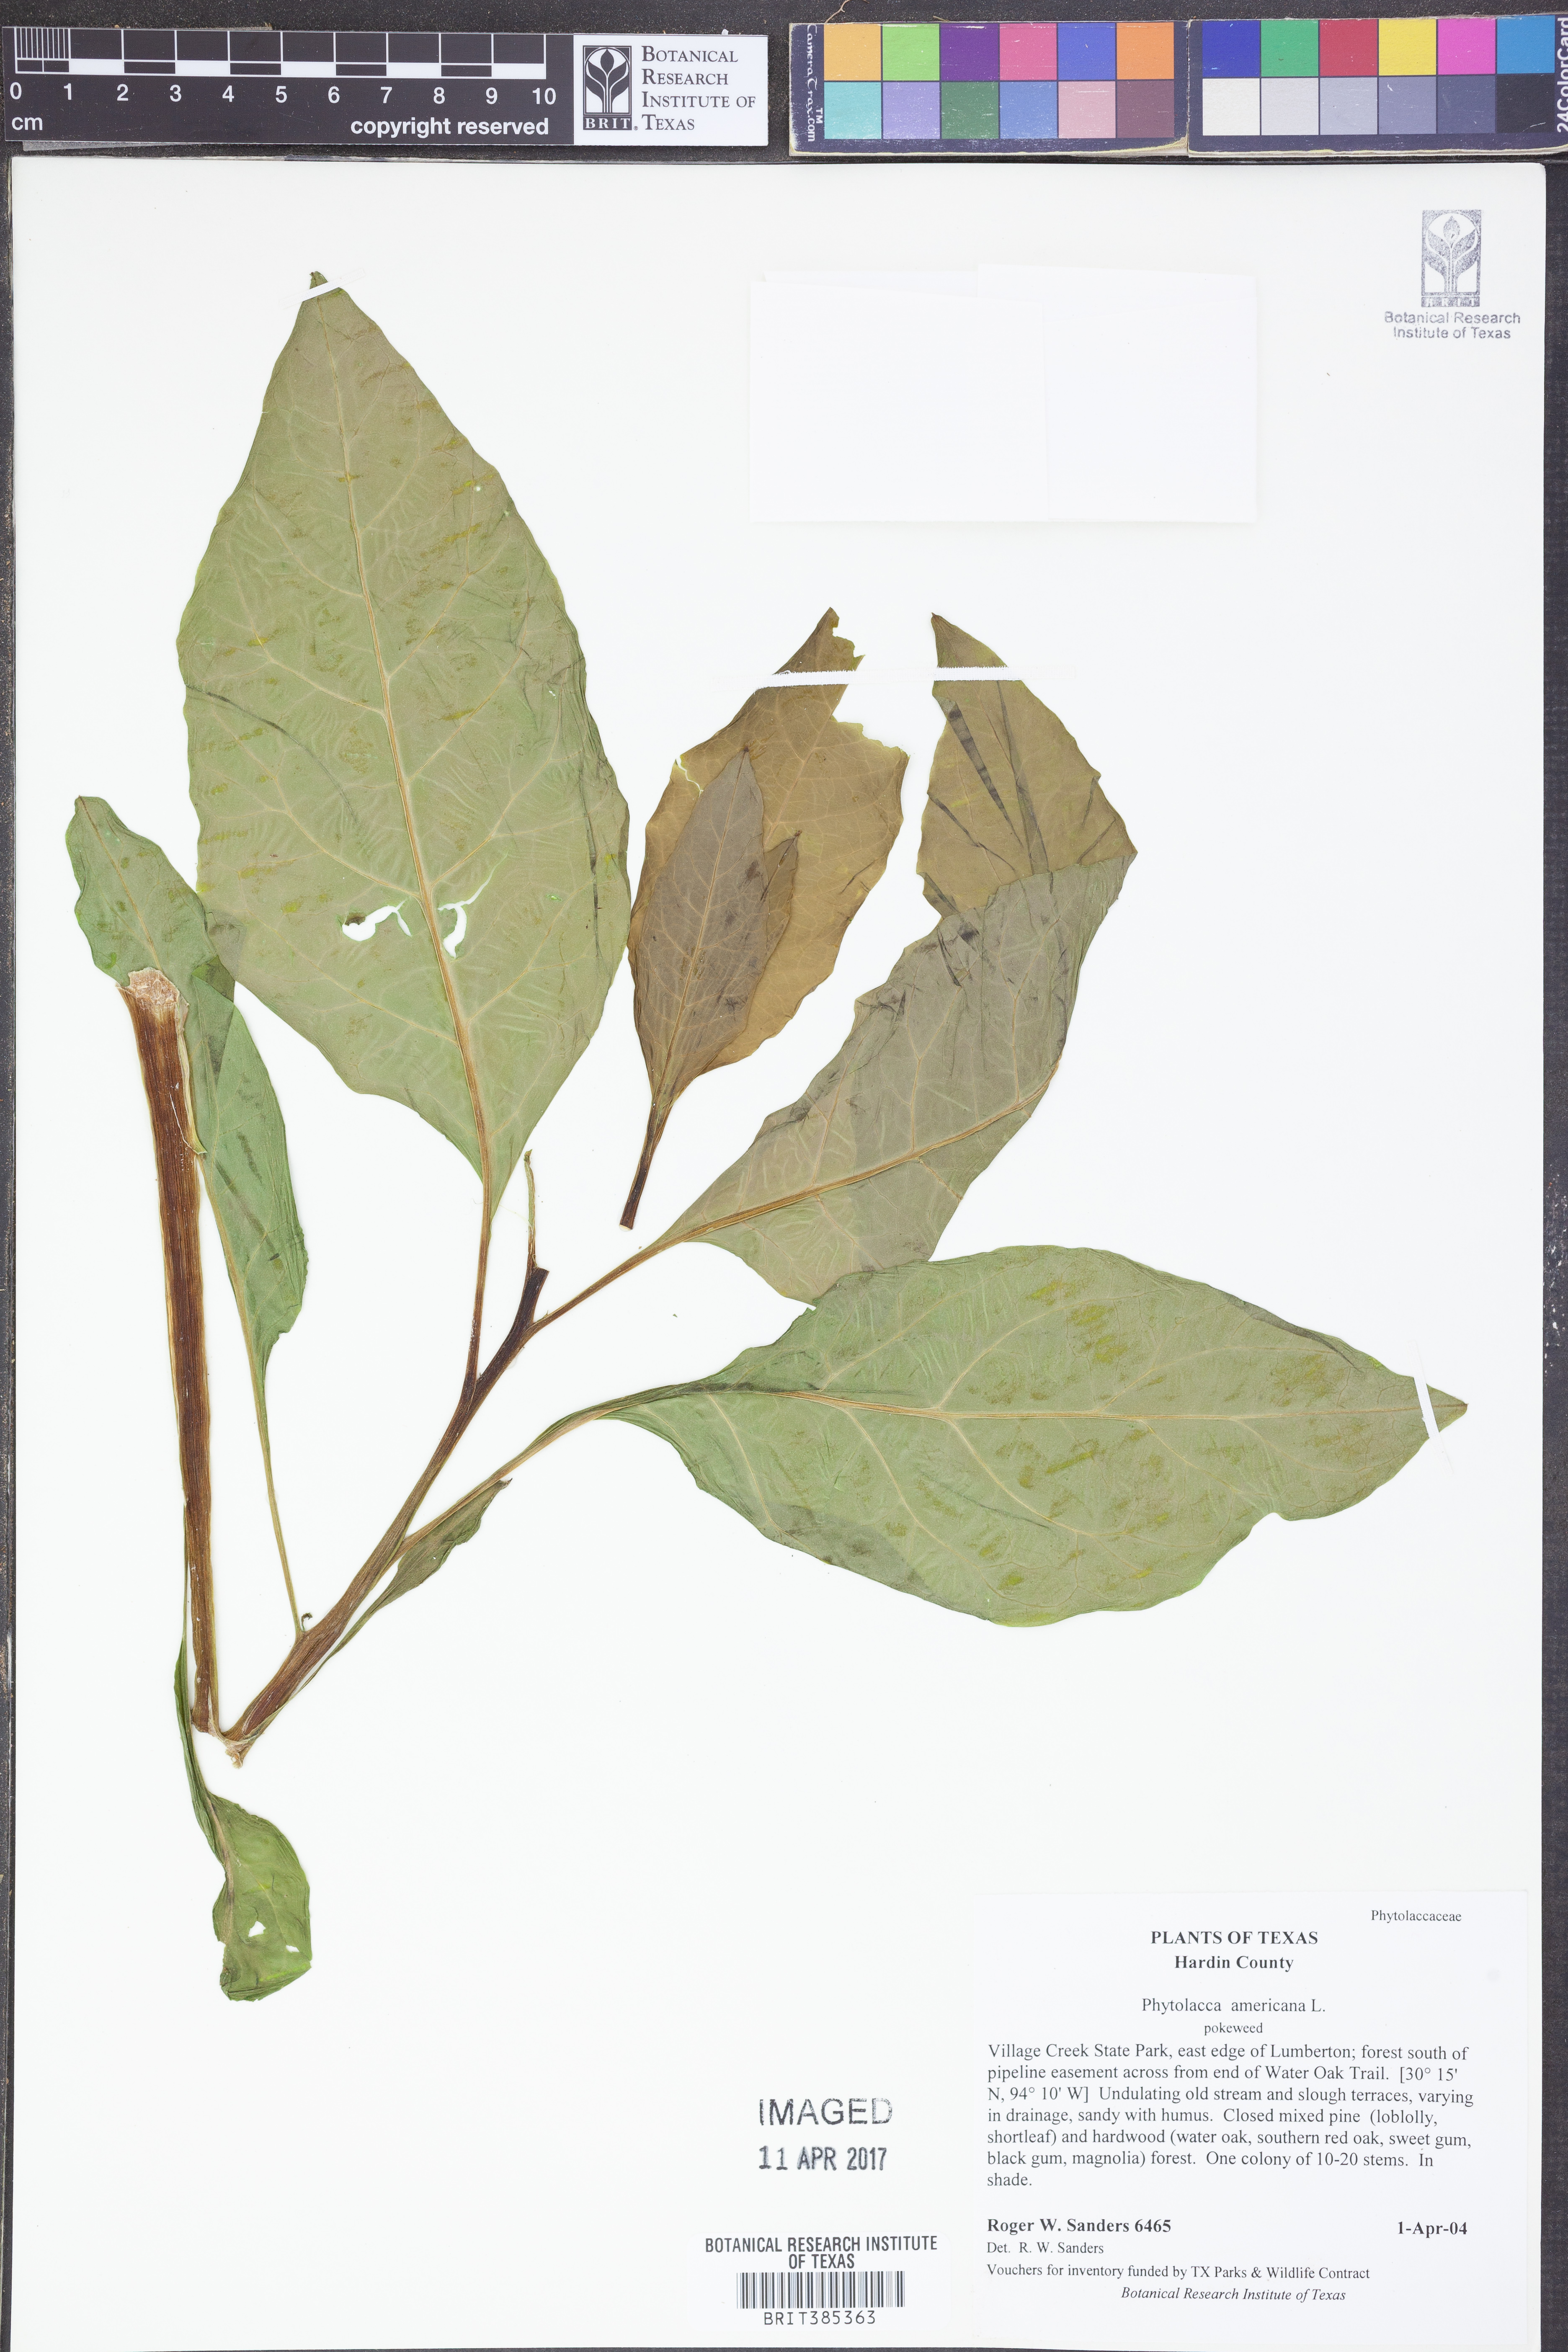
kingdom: Plantae
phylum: Tracheophyta
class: Magnoliopsida
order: Caryophyllales
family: Phytolaccaceae
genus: Phytolacca
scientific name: Phytolacca americana
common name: American pokeweed
